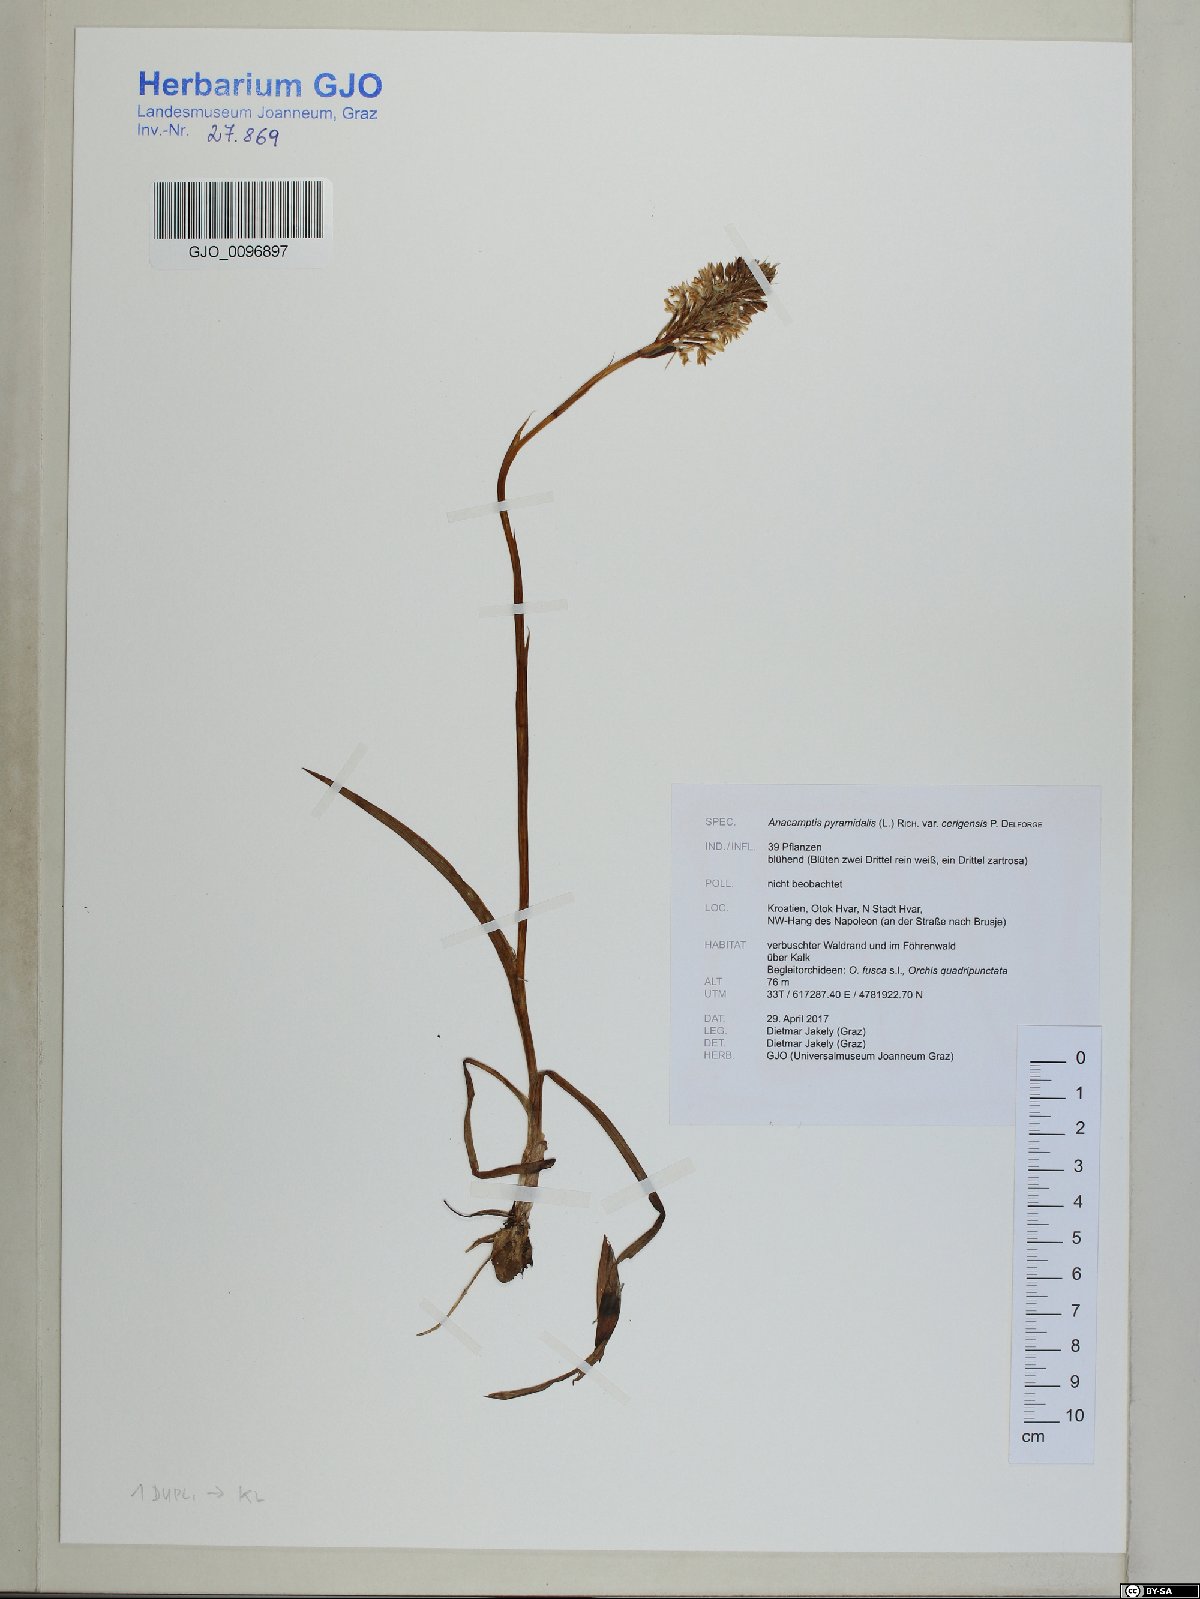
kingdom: Plantae
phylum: Tracheophyta
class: Liliopsida
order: Asparagales
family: Orchidaceae
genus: Anacamptis
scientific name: Anacamptis pyramidalis
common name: Pyramidal orchid
